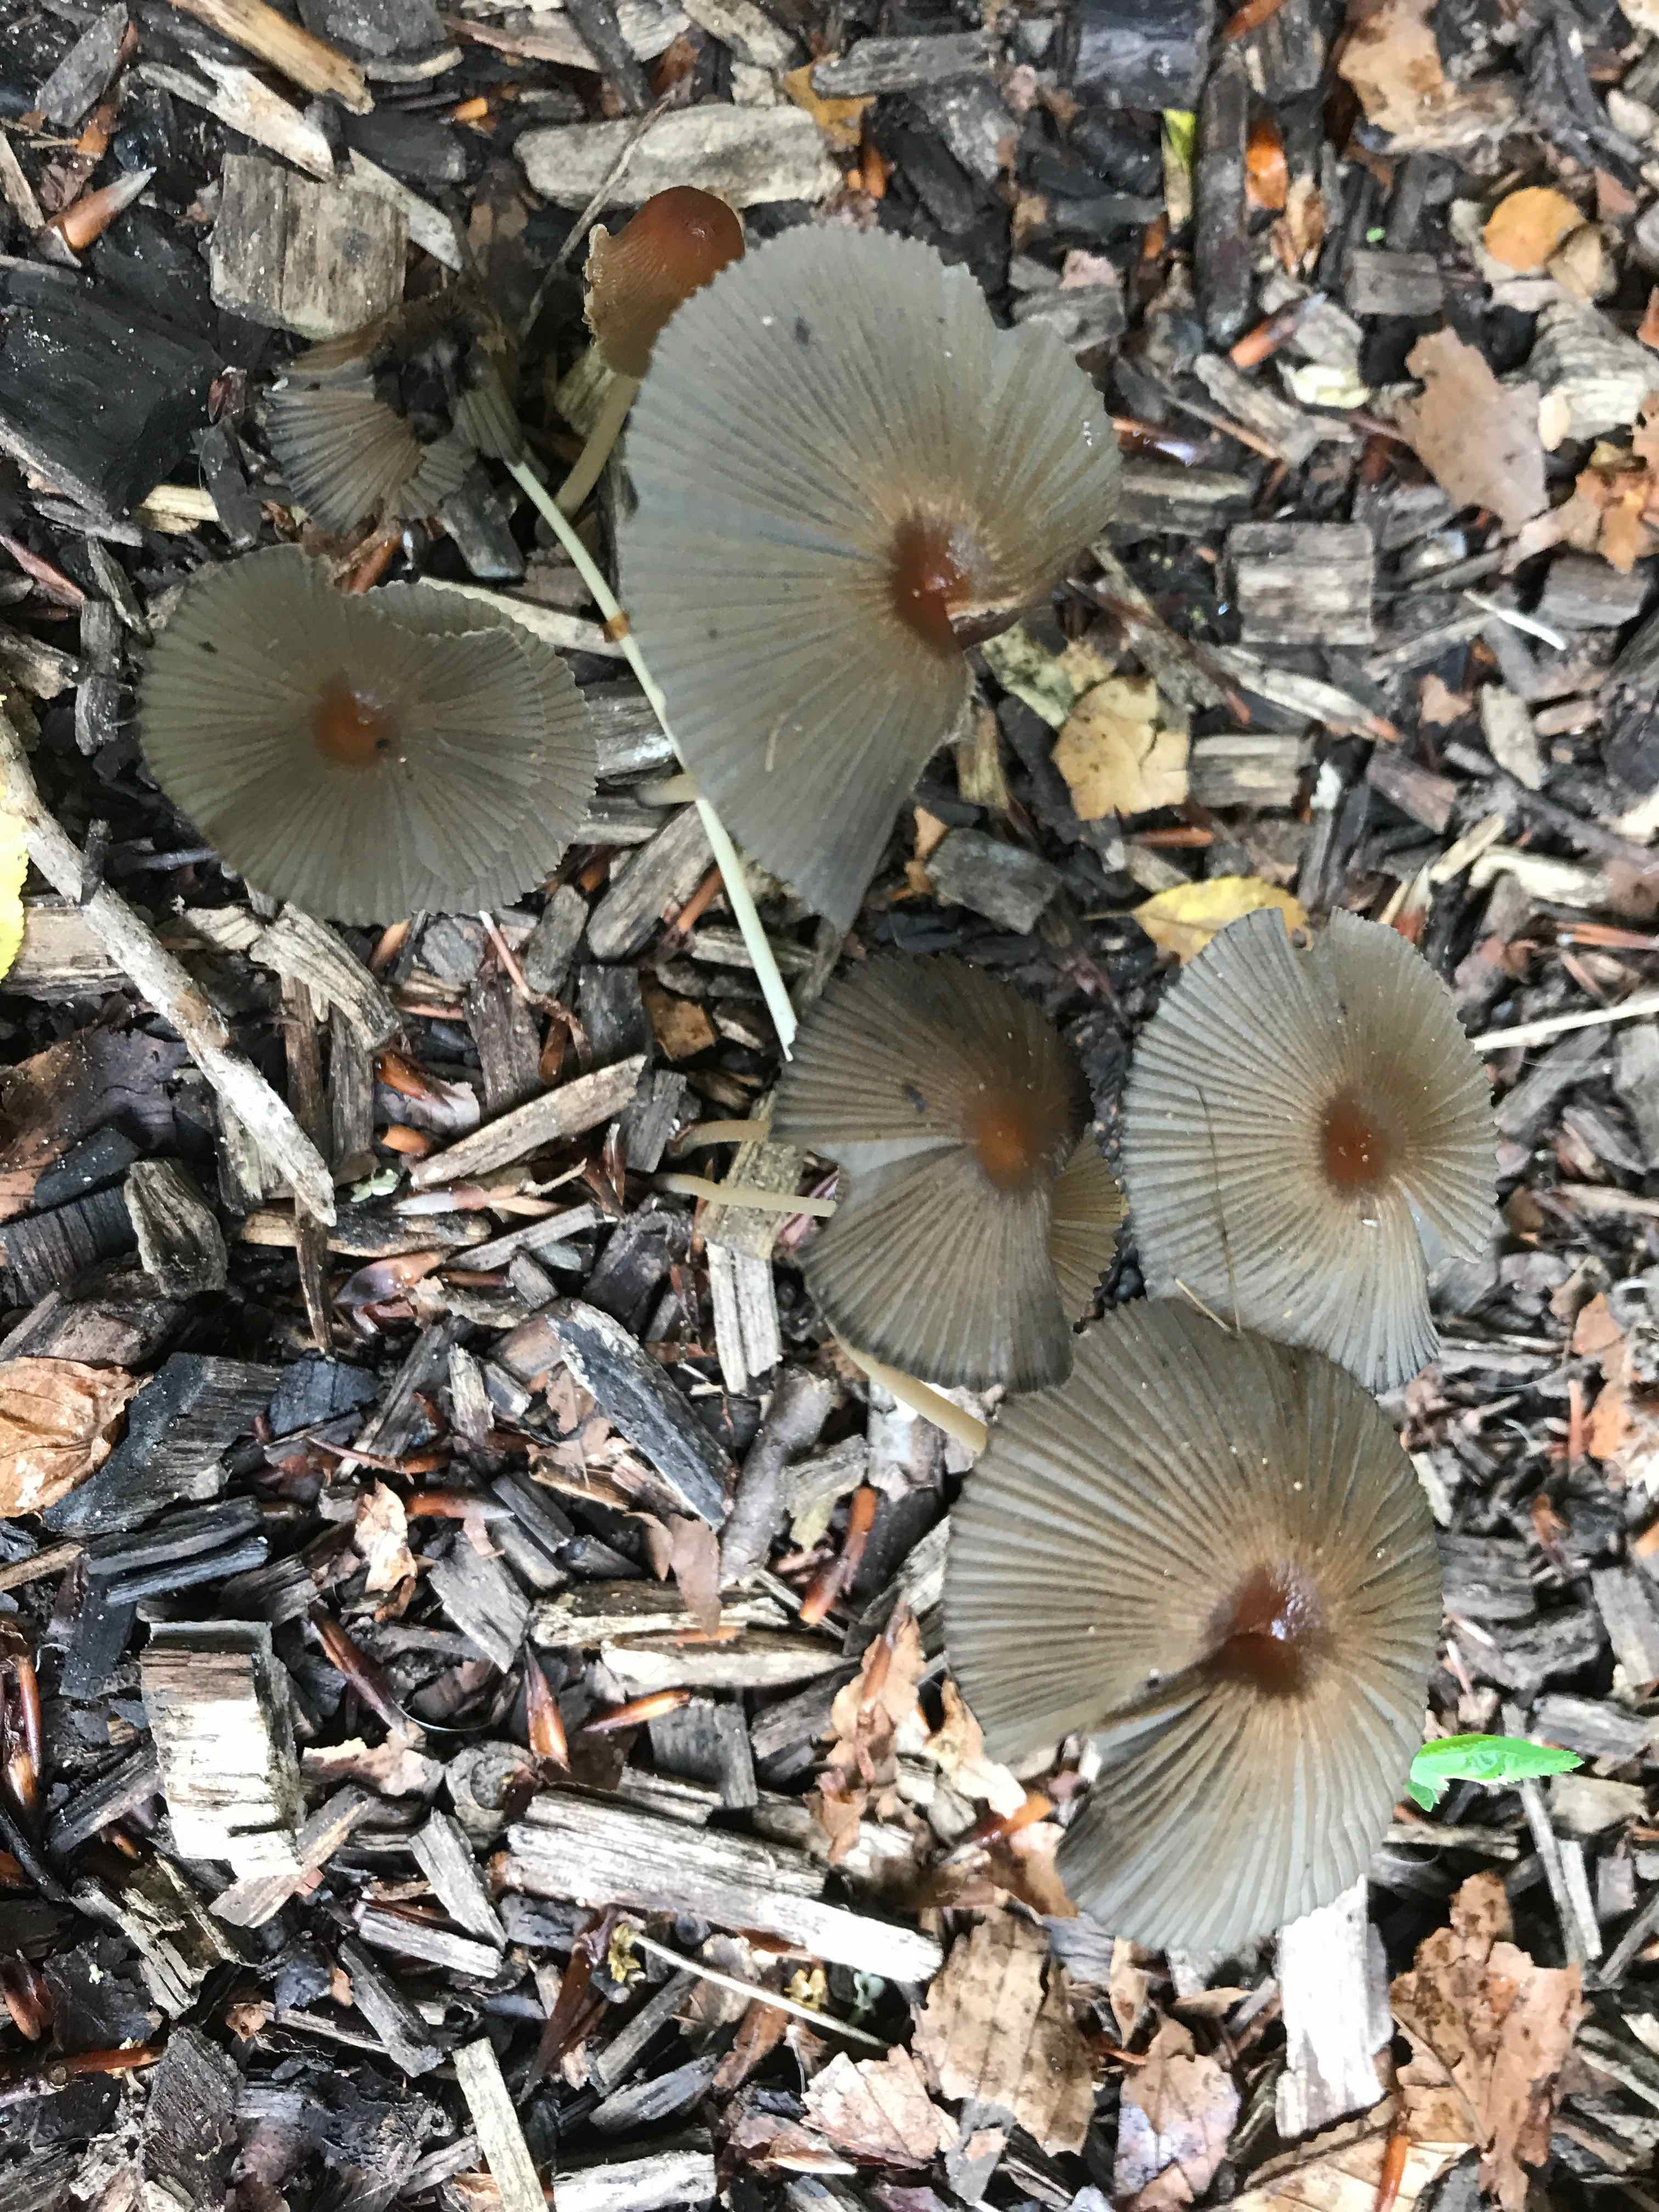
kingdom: Fungi
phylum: Basidiomycota
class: Agaricomycetes
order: Agaricales
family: Psathyrellaceae
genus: Parasola
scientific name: Parasola
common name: hjulhat
